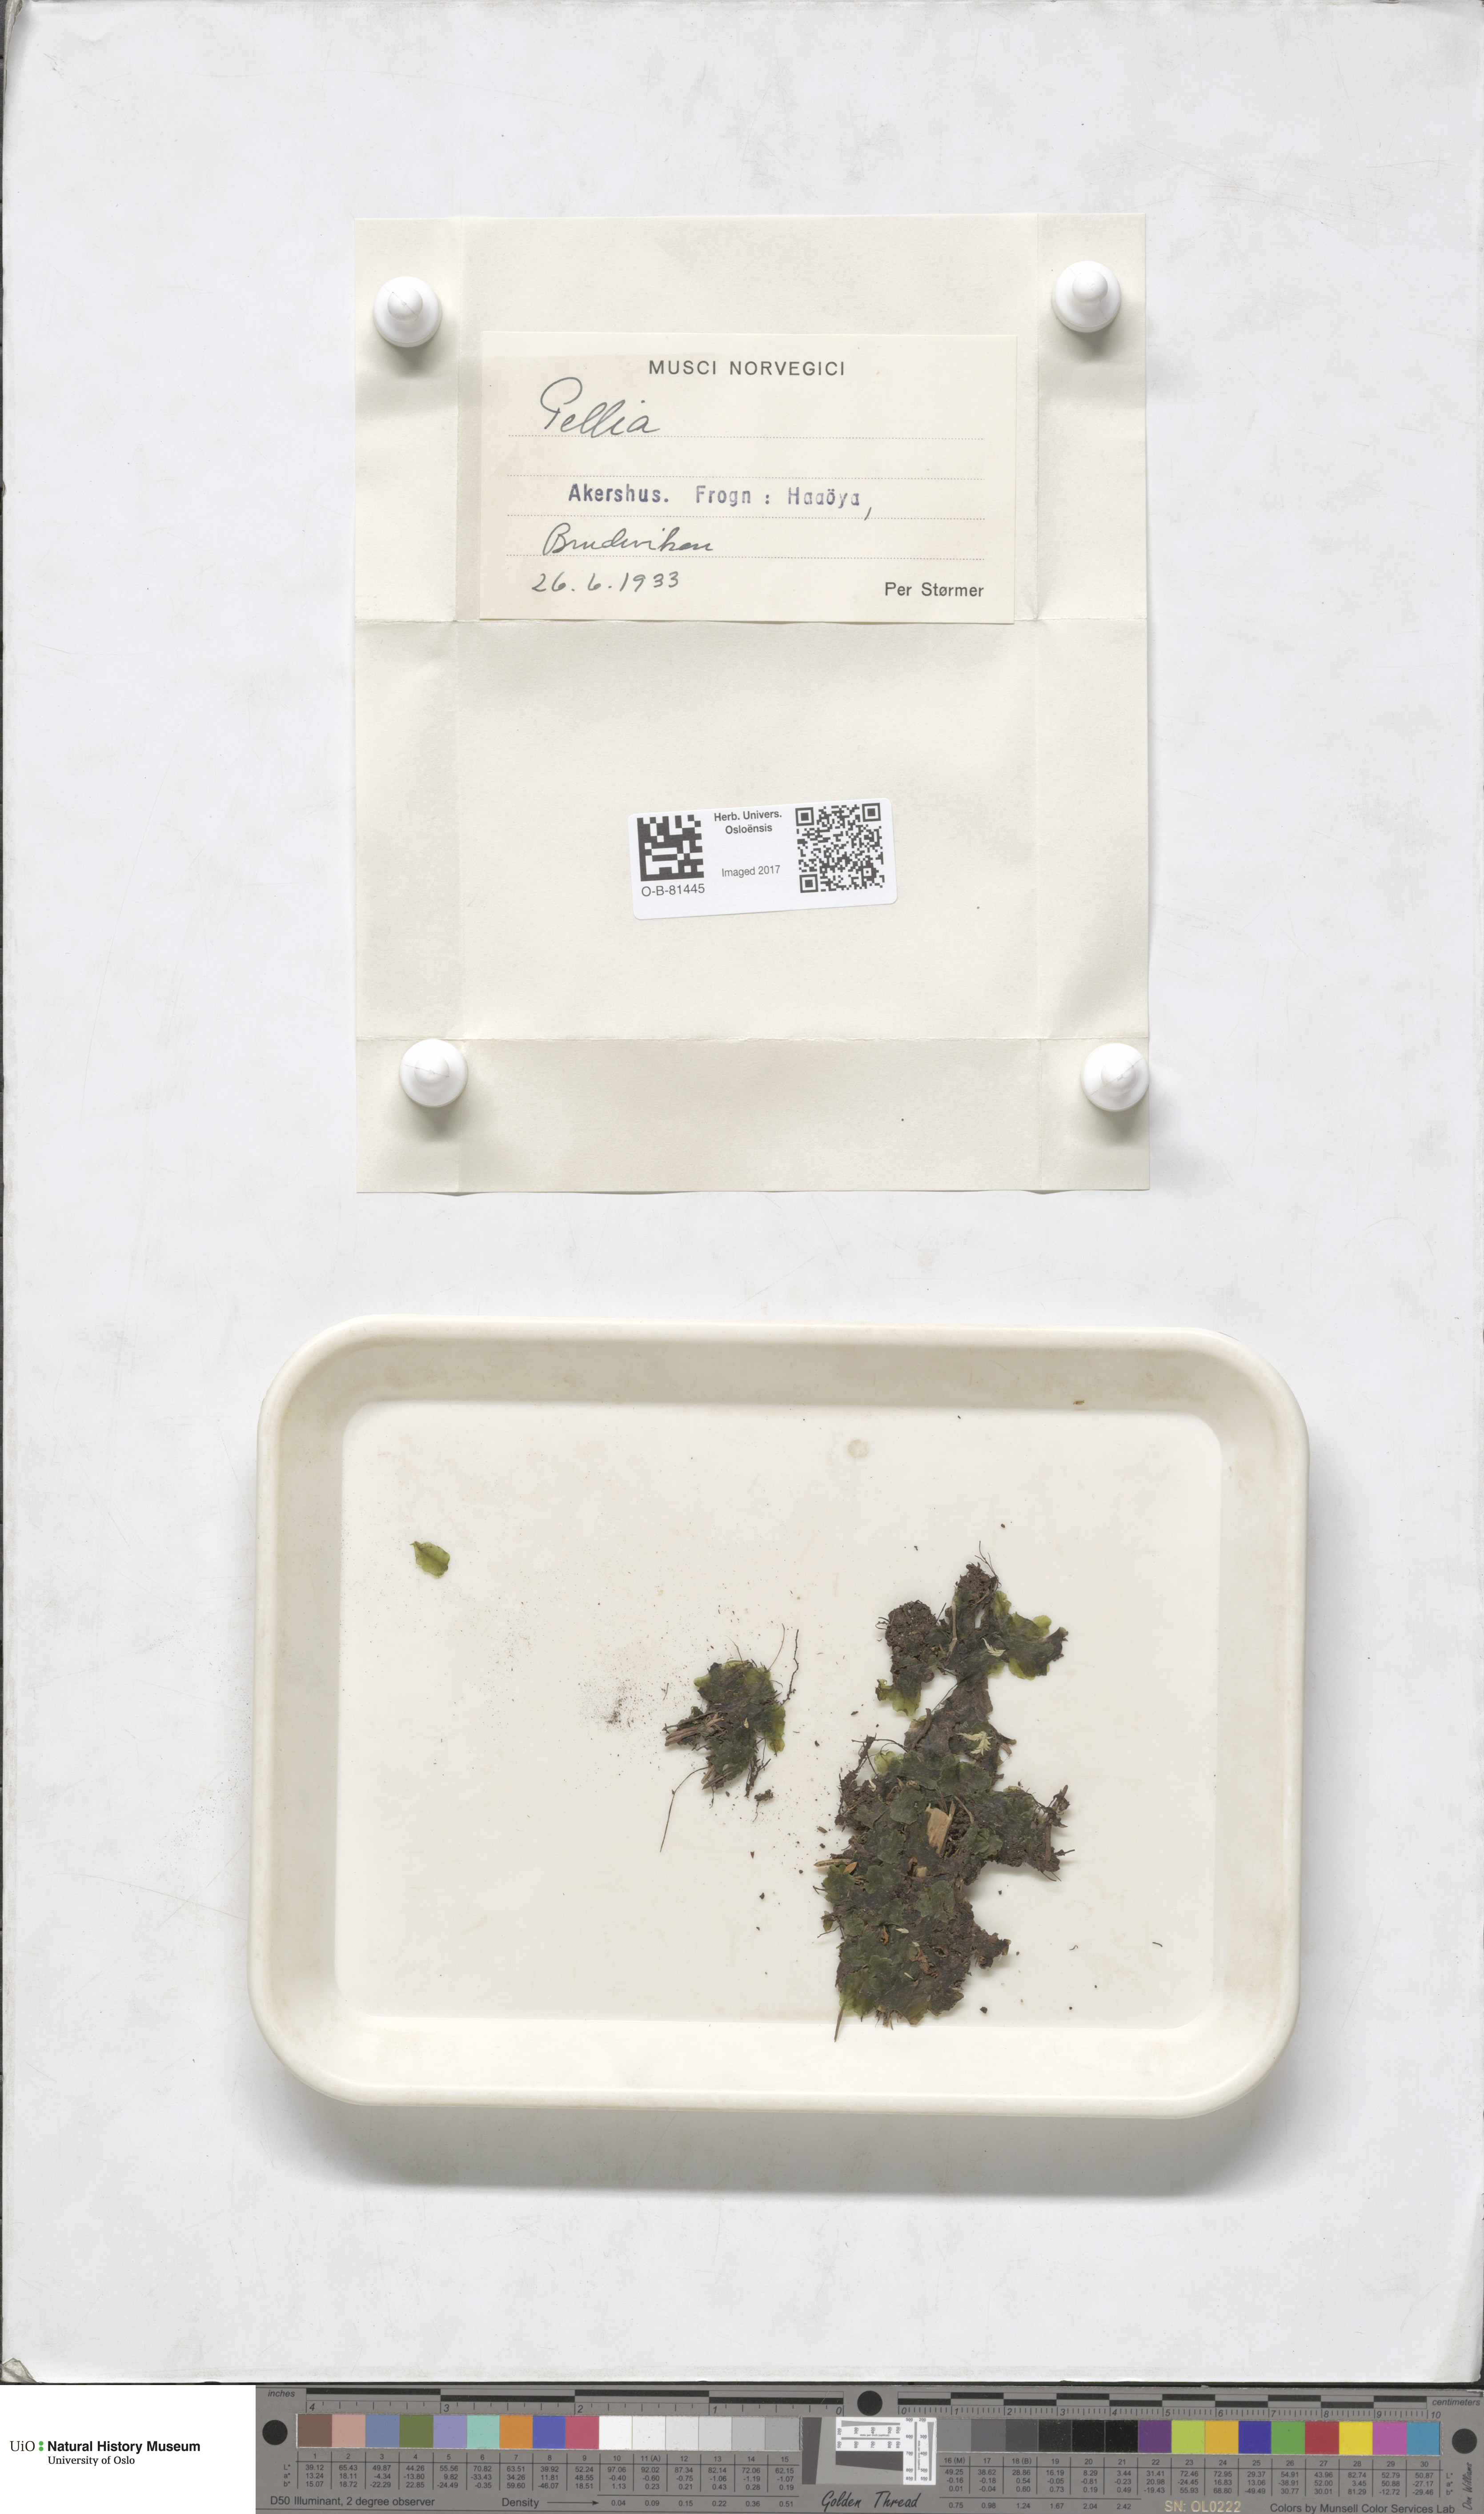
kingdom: Plantae
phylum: Marchantiophyta
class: Jungermanniopsida
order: Pelliales
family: Pelliaceae
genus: Pellia
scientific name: Pellia
